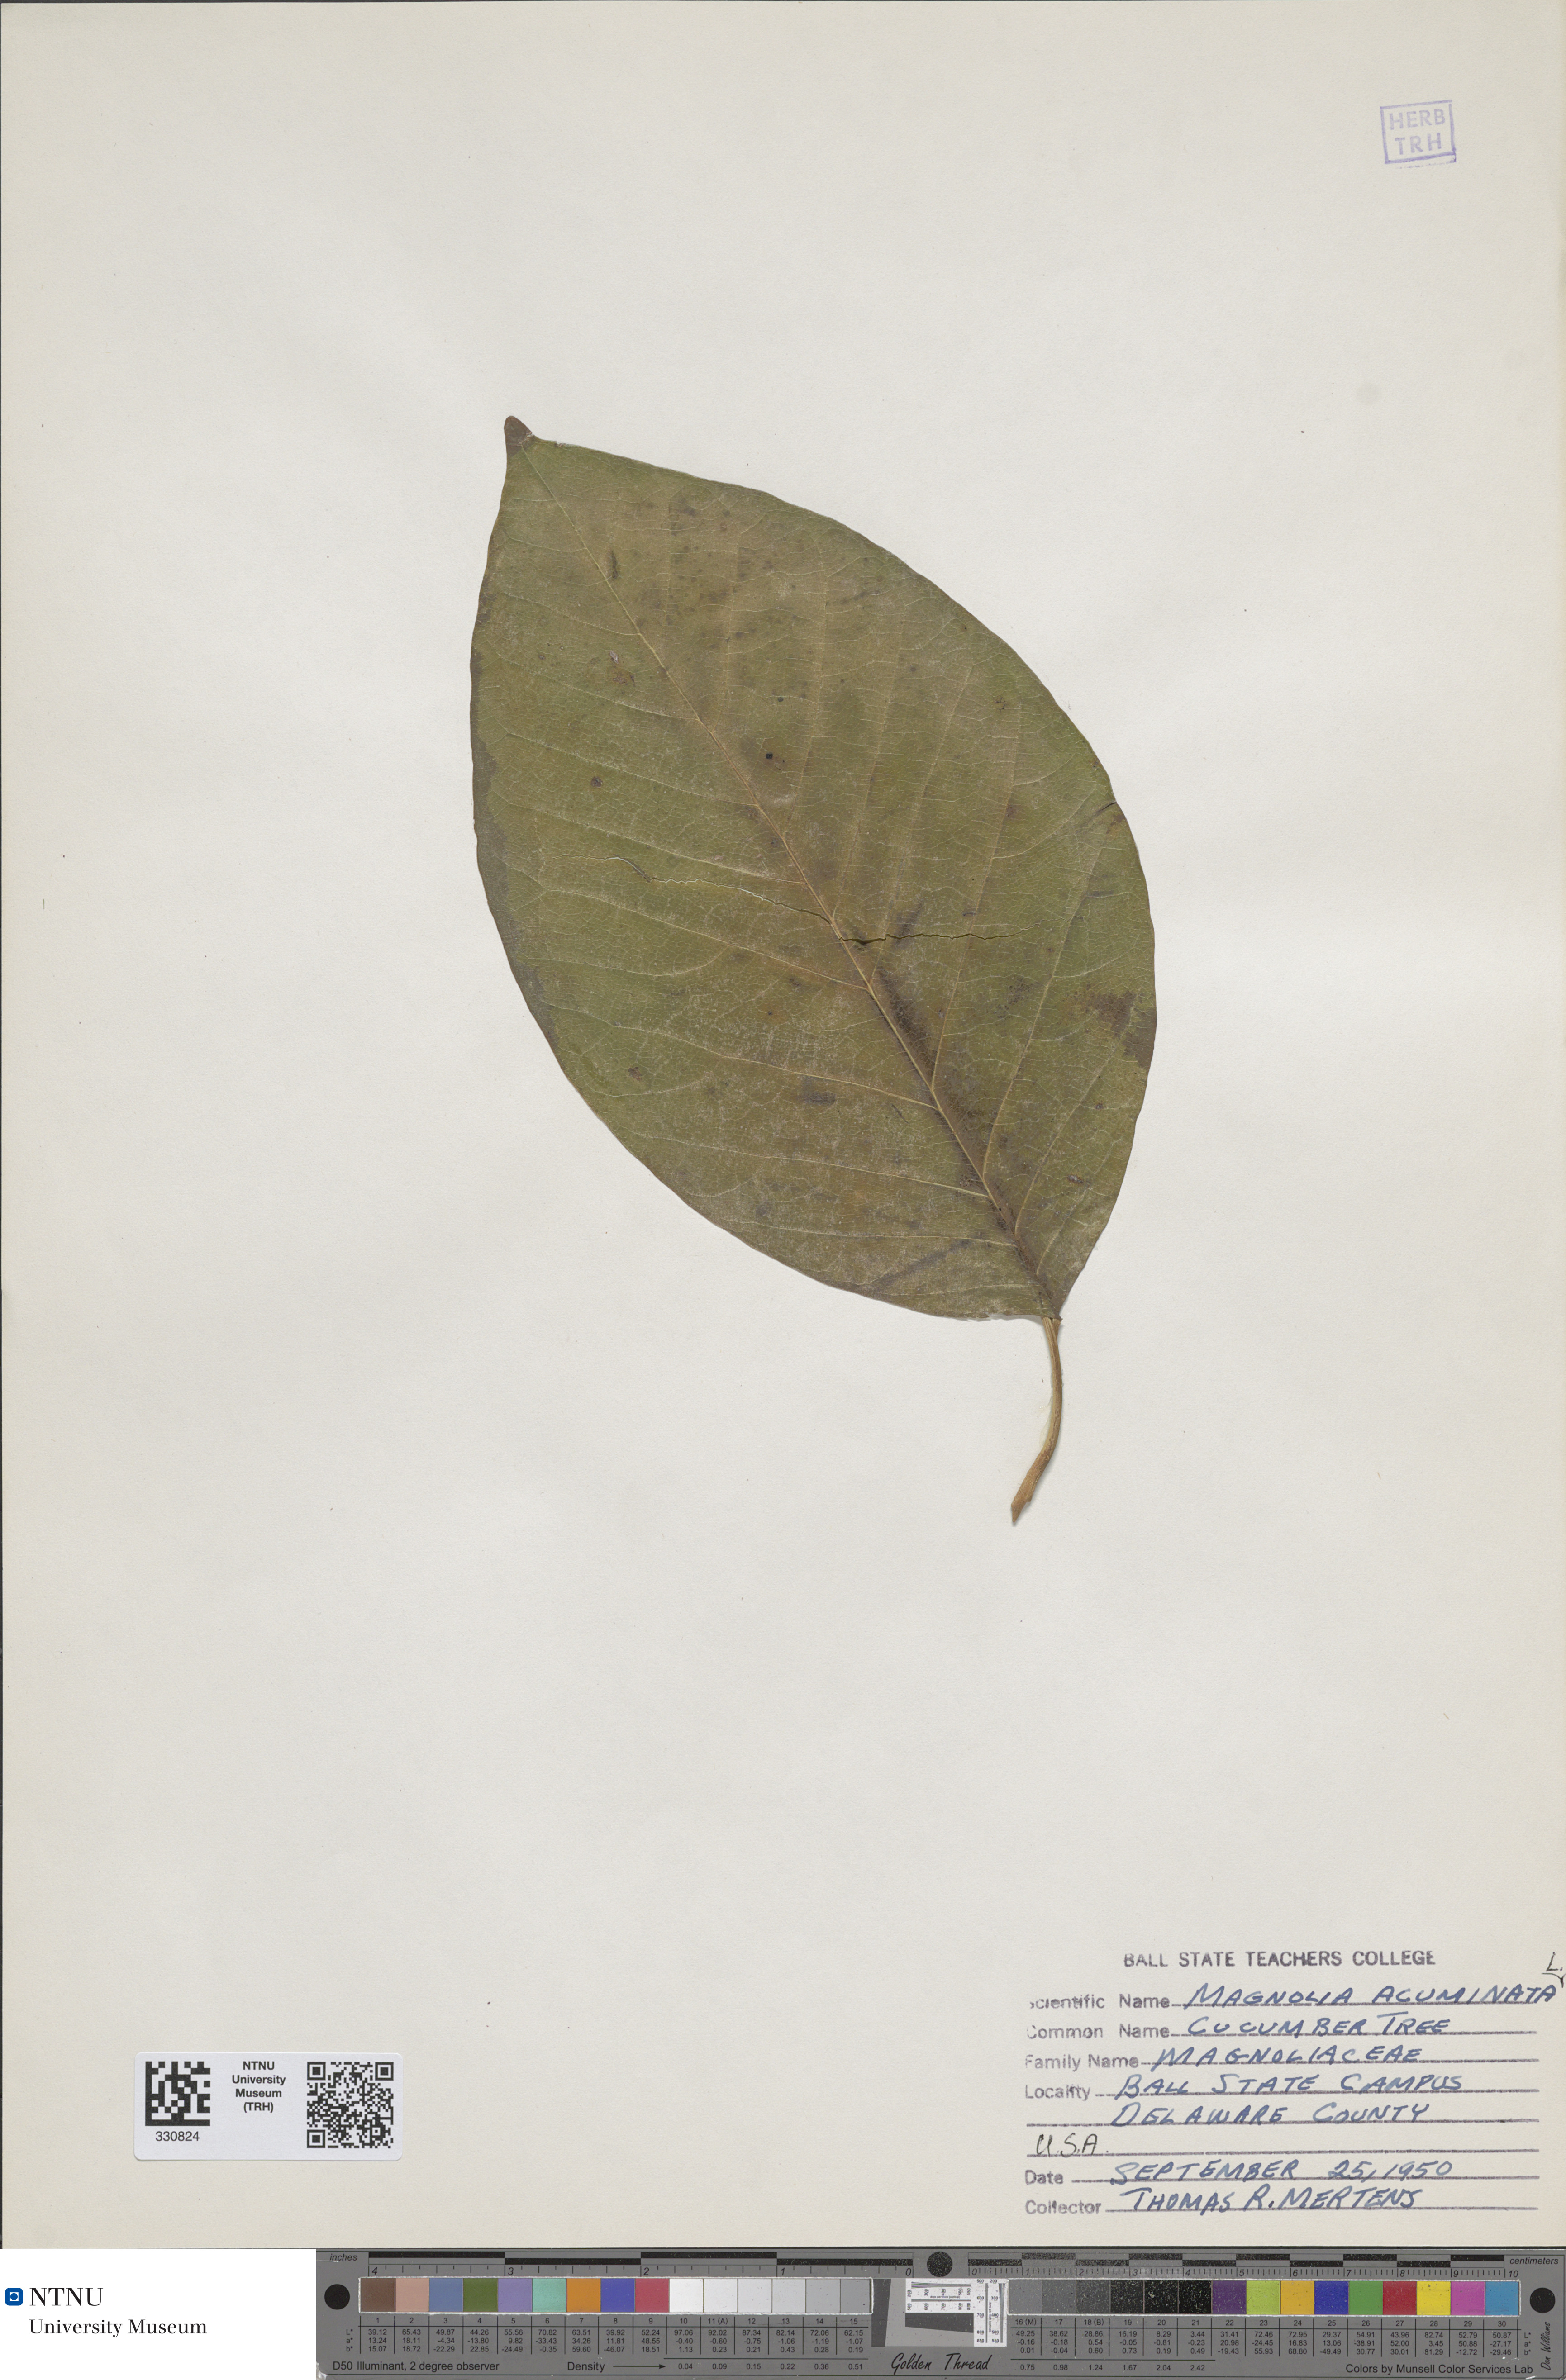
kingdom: Plantae
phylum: Tracheophyta
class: Magnoliopsida
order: Magnoliales
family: Magnoliaceae
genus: Magnolia
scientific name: Magnolia acuminata
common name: Cucumber magnolia
